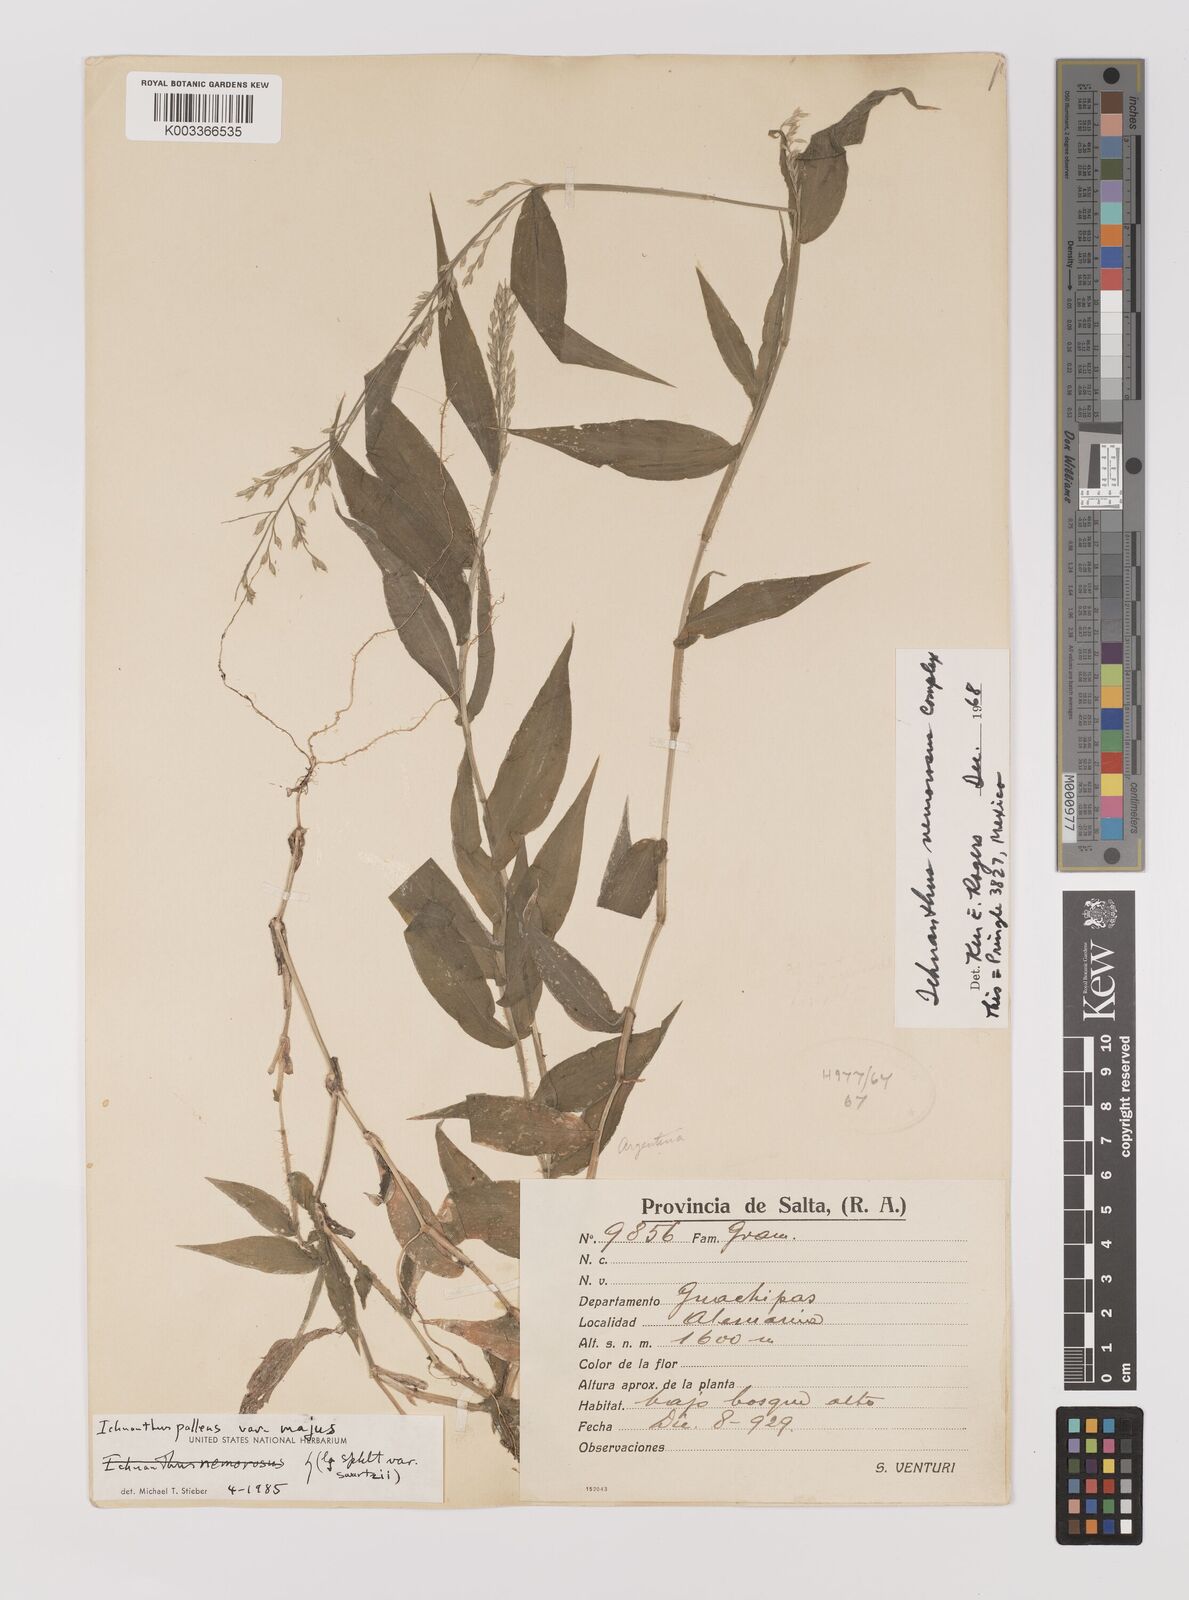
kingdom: Plantae
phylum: Tracheophyta
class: Liliopsida
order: Poales
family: Poaceae
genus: Ichnanthus
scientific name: Ichnanthus pallens
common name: Water grass
